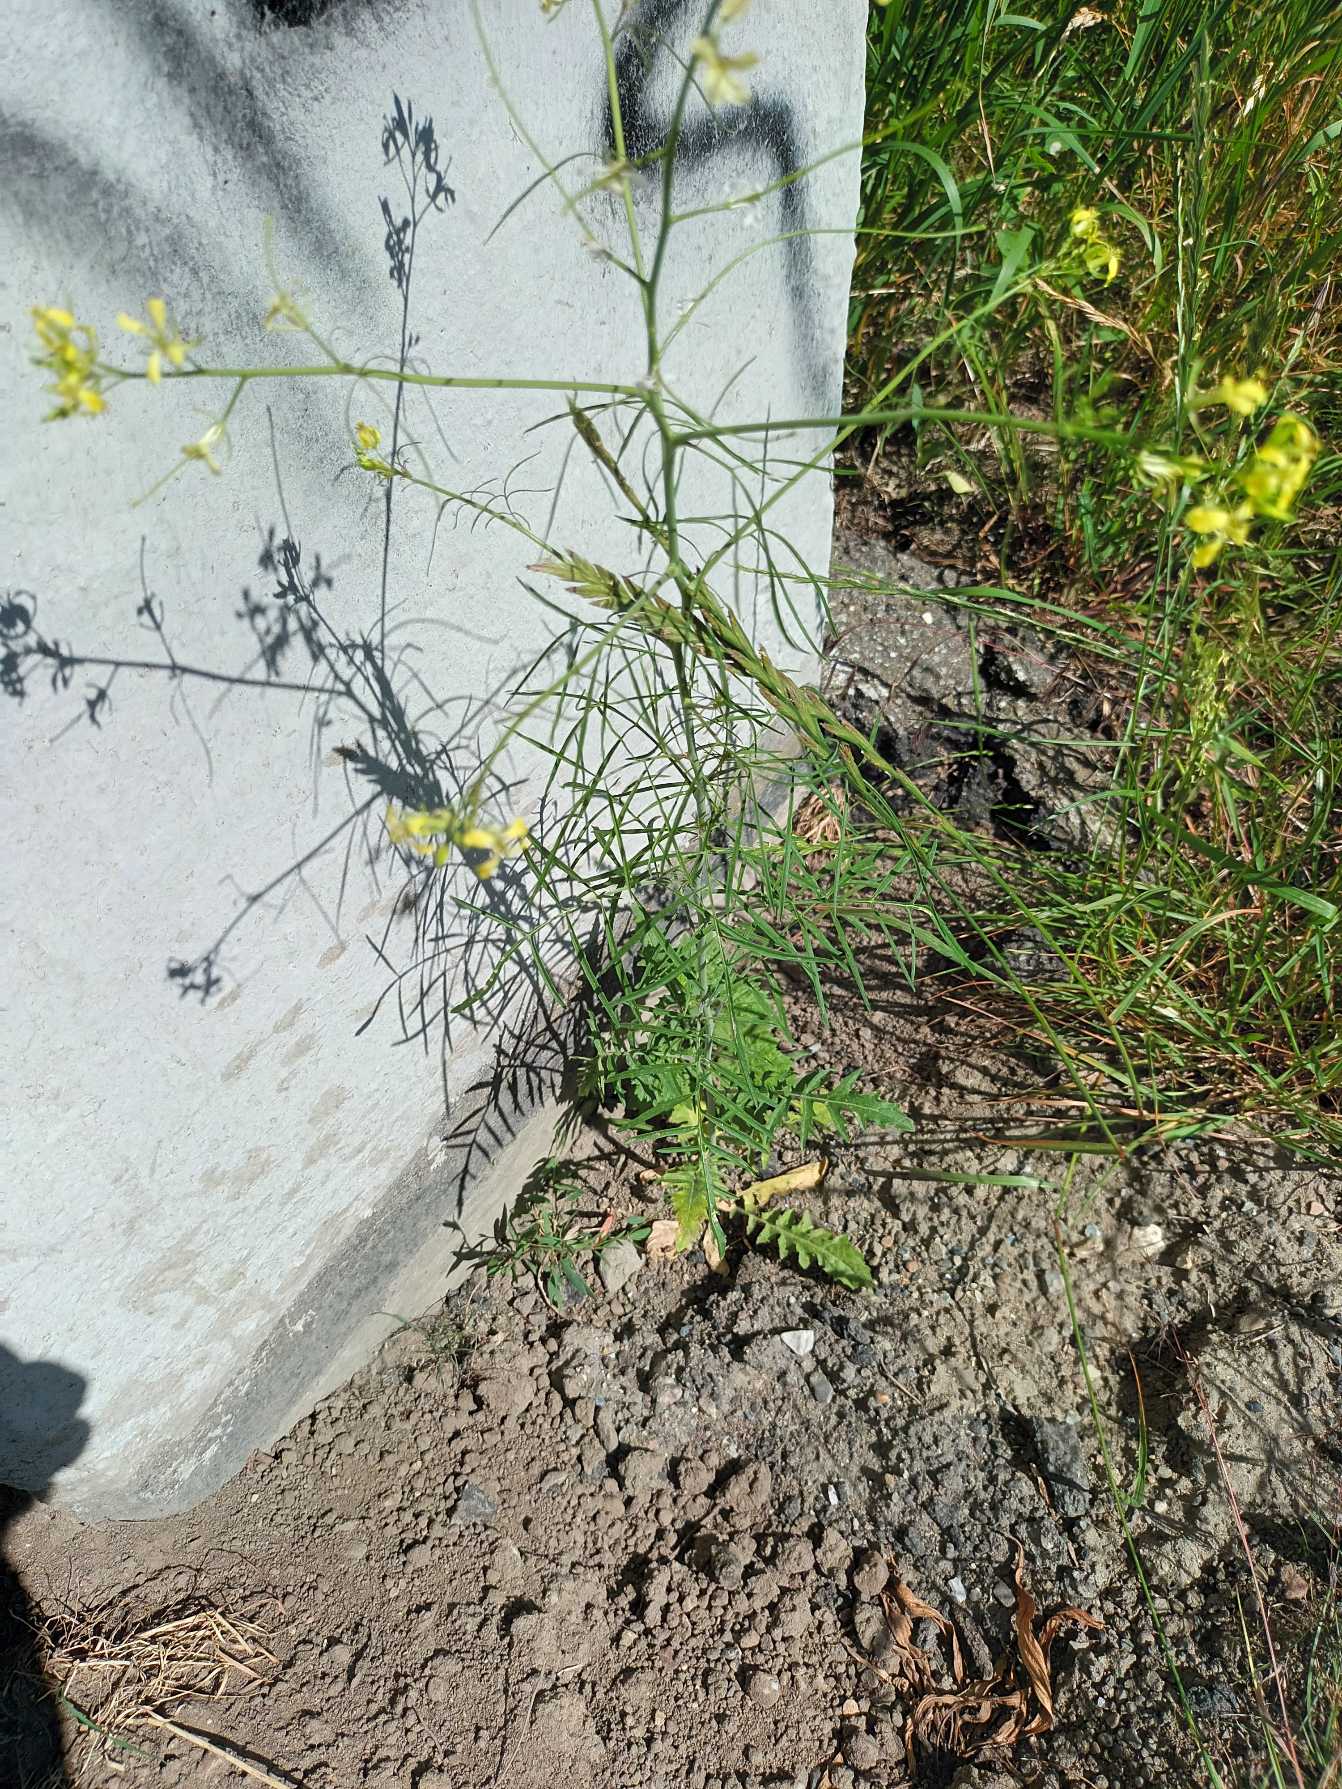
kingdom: Plantae
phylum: Tracheophyta
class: Magnoliopsida
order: Brassicales
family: Brassicaceae
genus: Sisymbrium
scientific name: Sisymbrium altissimum
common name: Ungarsk vejsennep
